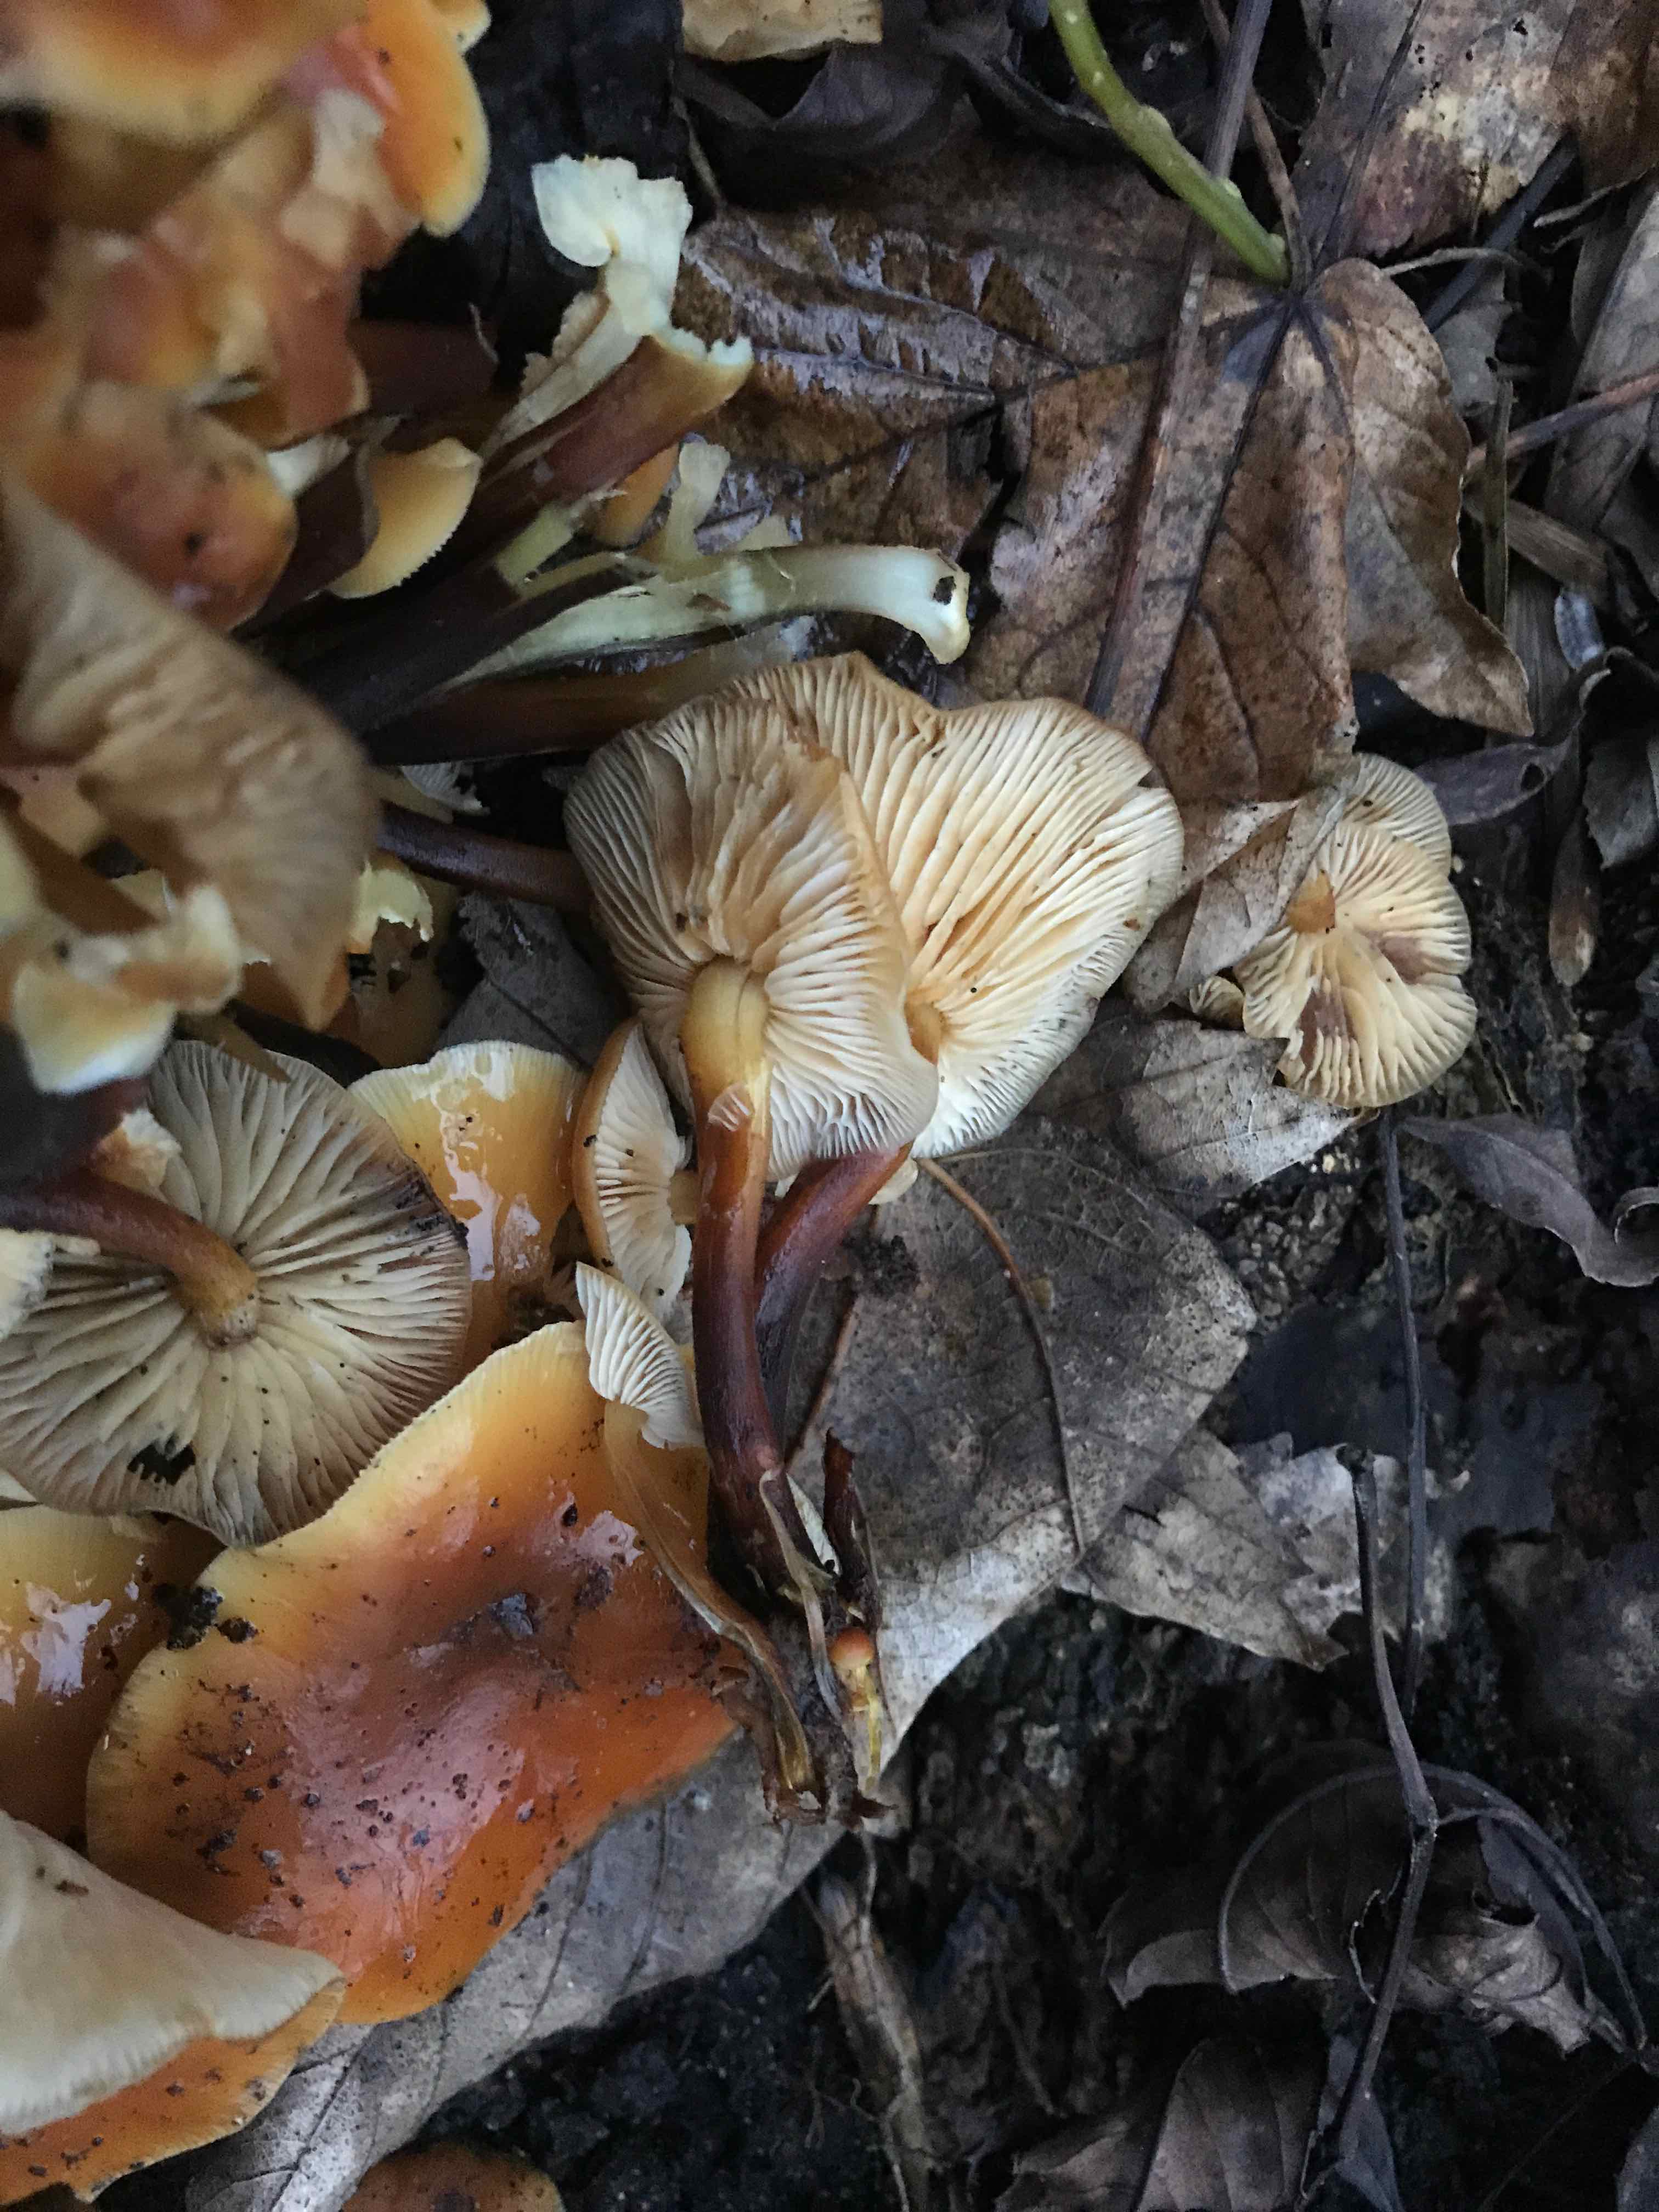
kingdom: Fungi
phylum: Basidiomycota
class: Agaricomycetes
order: Agaricales
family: Physalacriaceae
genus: Flammulina
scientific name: Flammulina velutipes
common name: gul fløjlsfod
